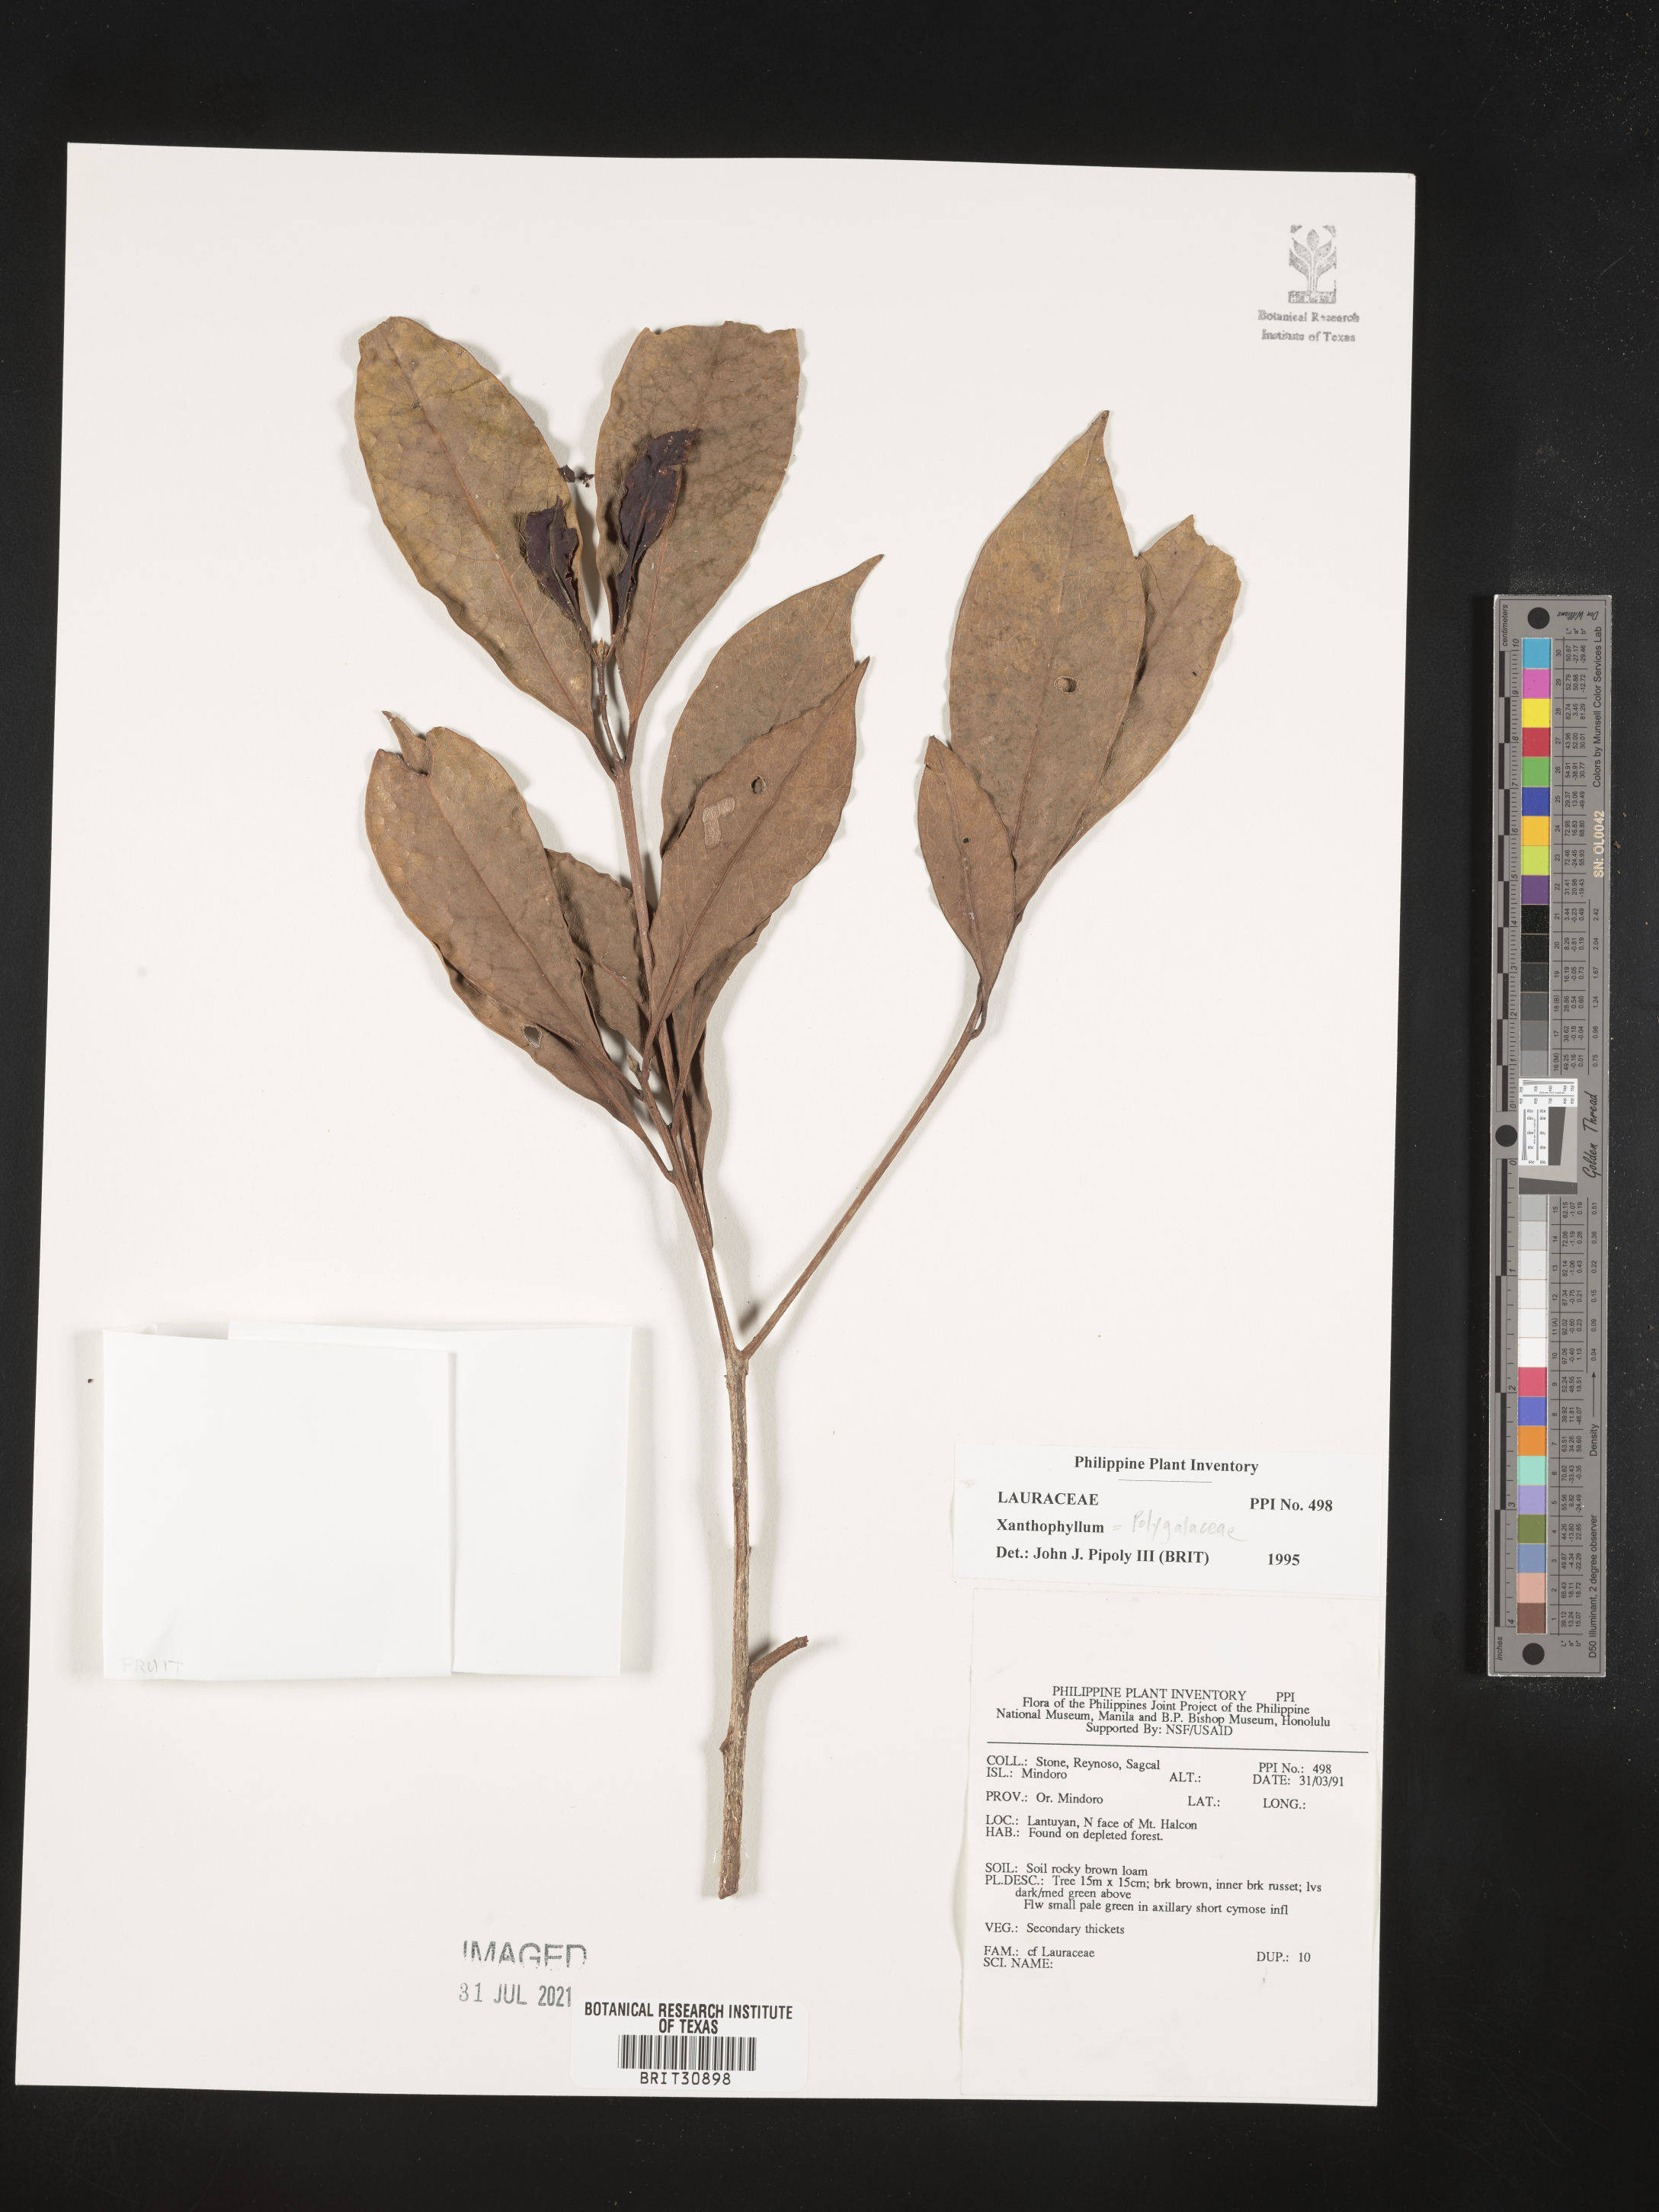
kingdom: Plantae
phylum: Tracheophyta
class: Magnoliopsida
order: Laurales
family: Lauraceae
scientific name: Lauraceae
